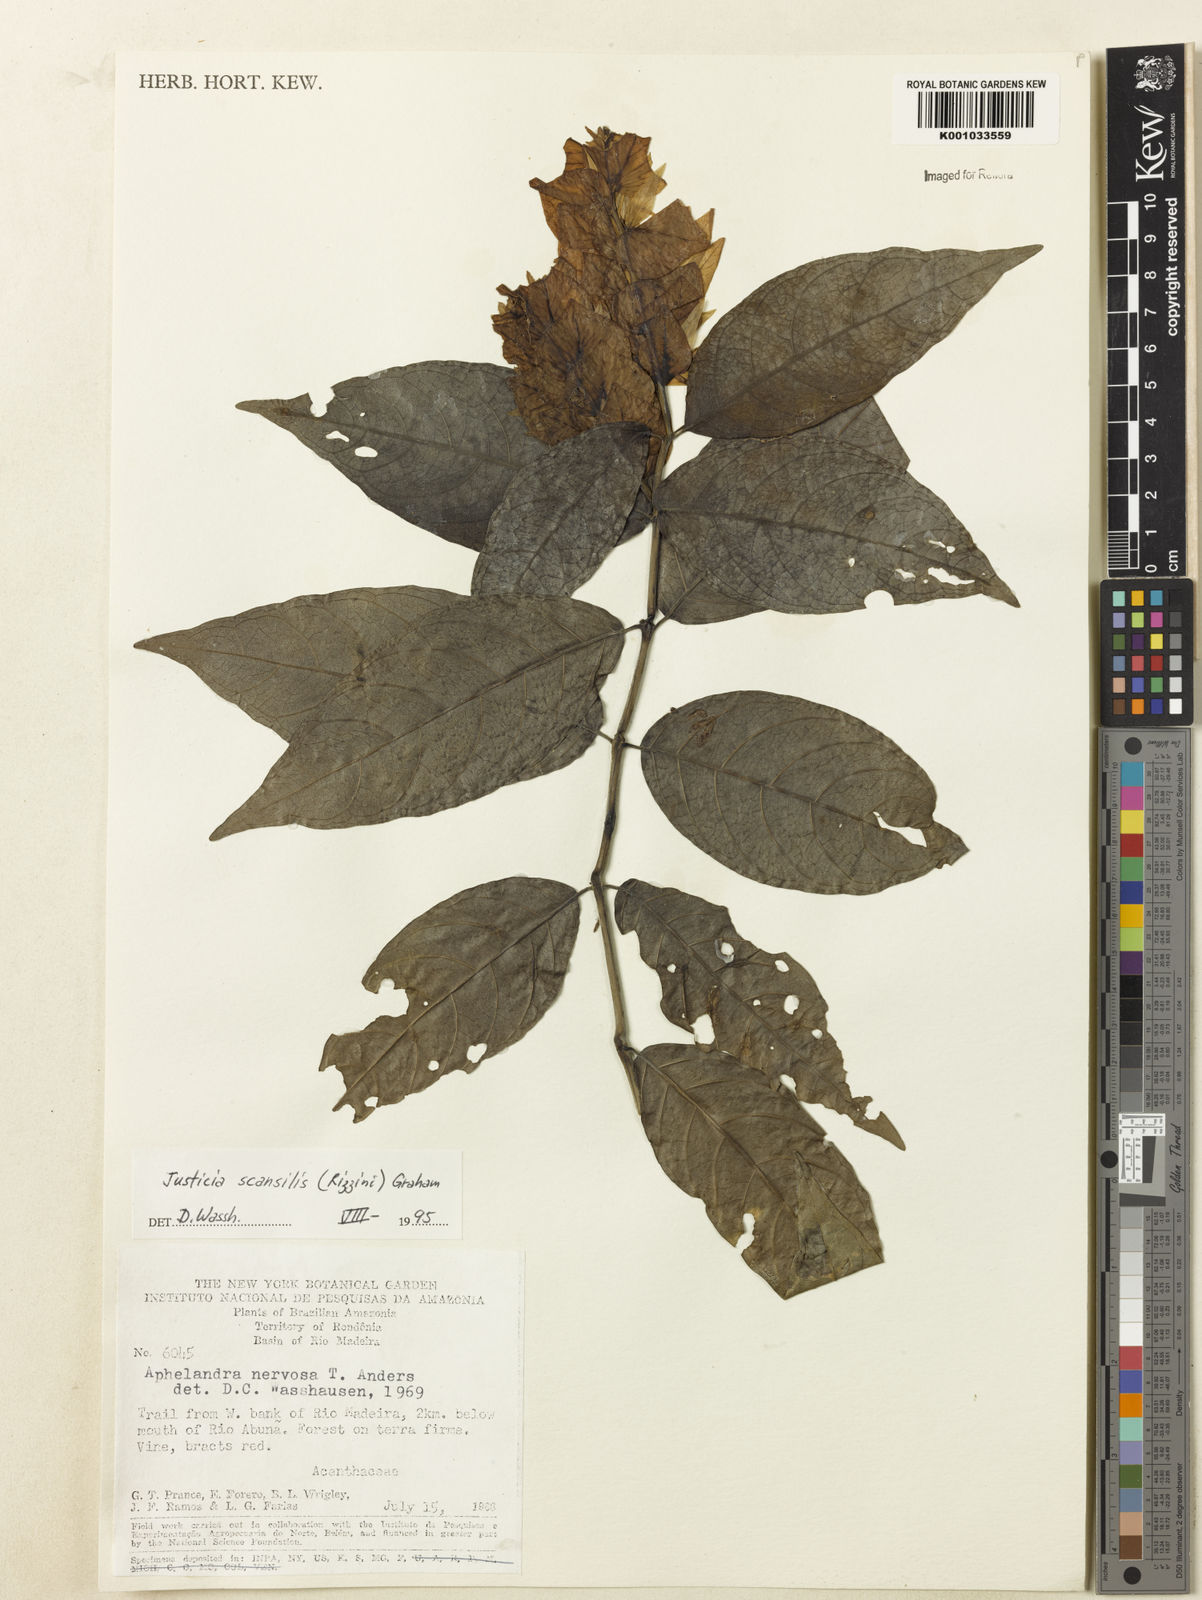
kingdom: Plantae
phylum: Tracheophyta
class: Magnoliopsida
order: Lamiales
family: Acanthaceae
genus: Justicia
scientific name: Justicia scansilis
